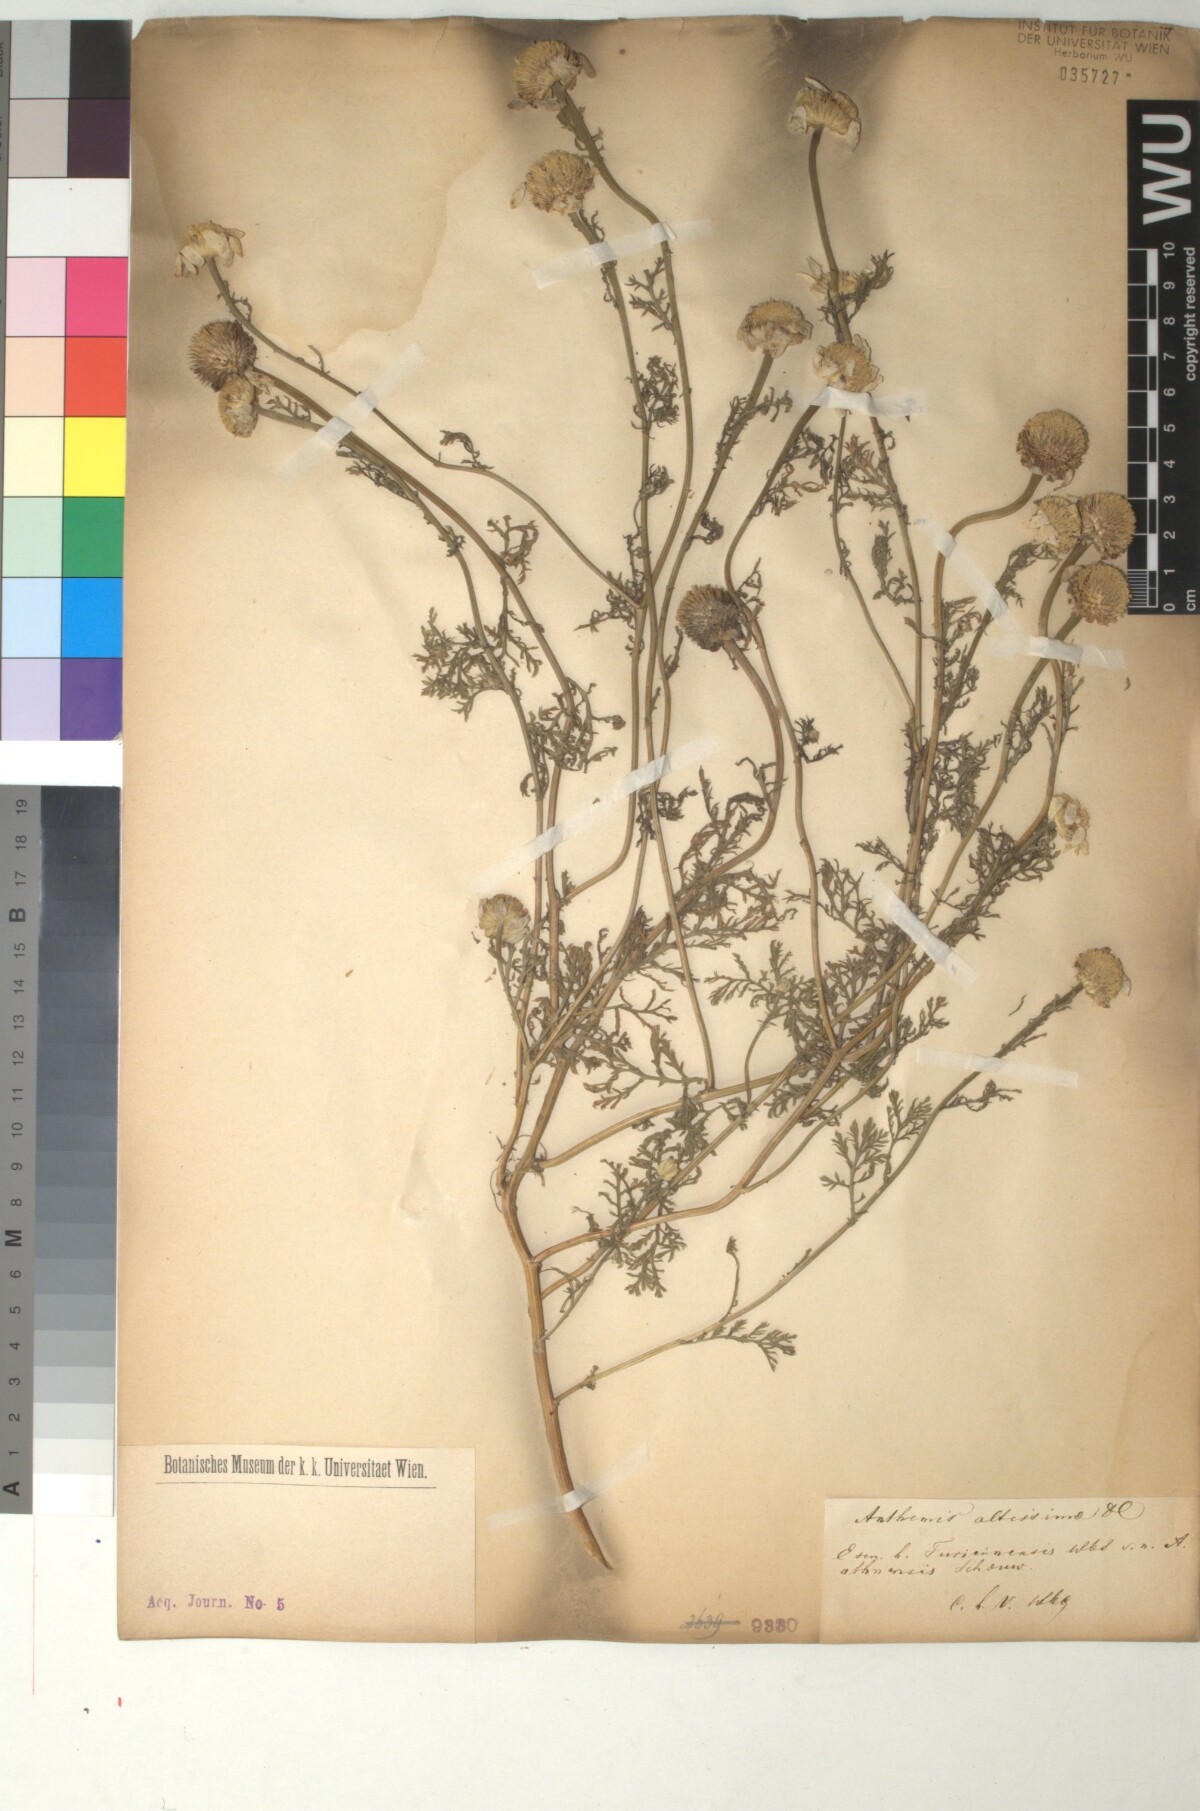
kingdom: Plantae
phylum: Tracheophyta
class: Magnoliopsida
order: Asterales
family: Asteraceae
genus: Cota
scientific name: Cota altissima
